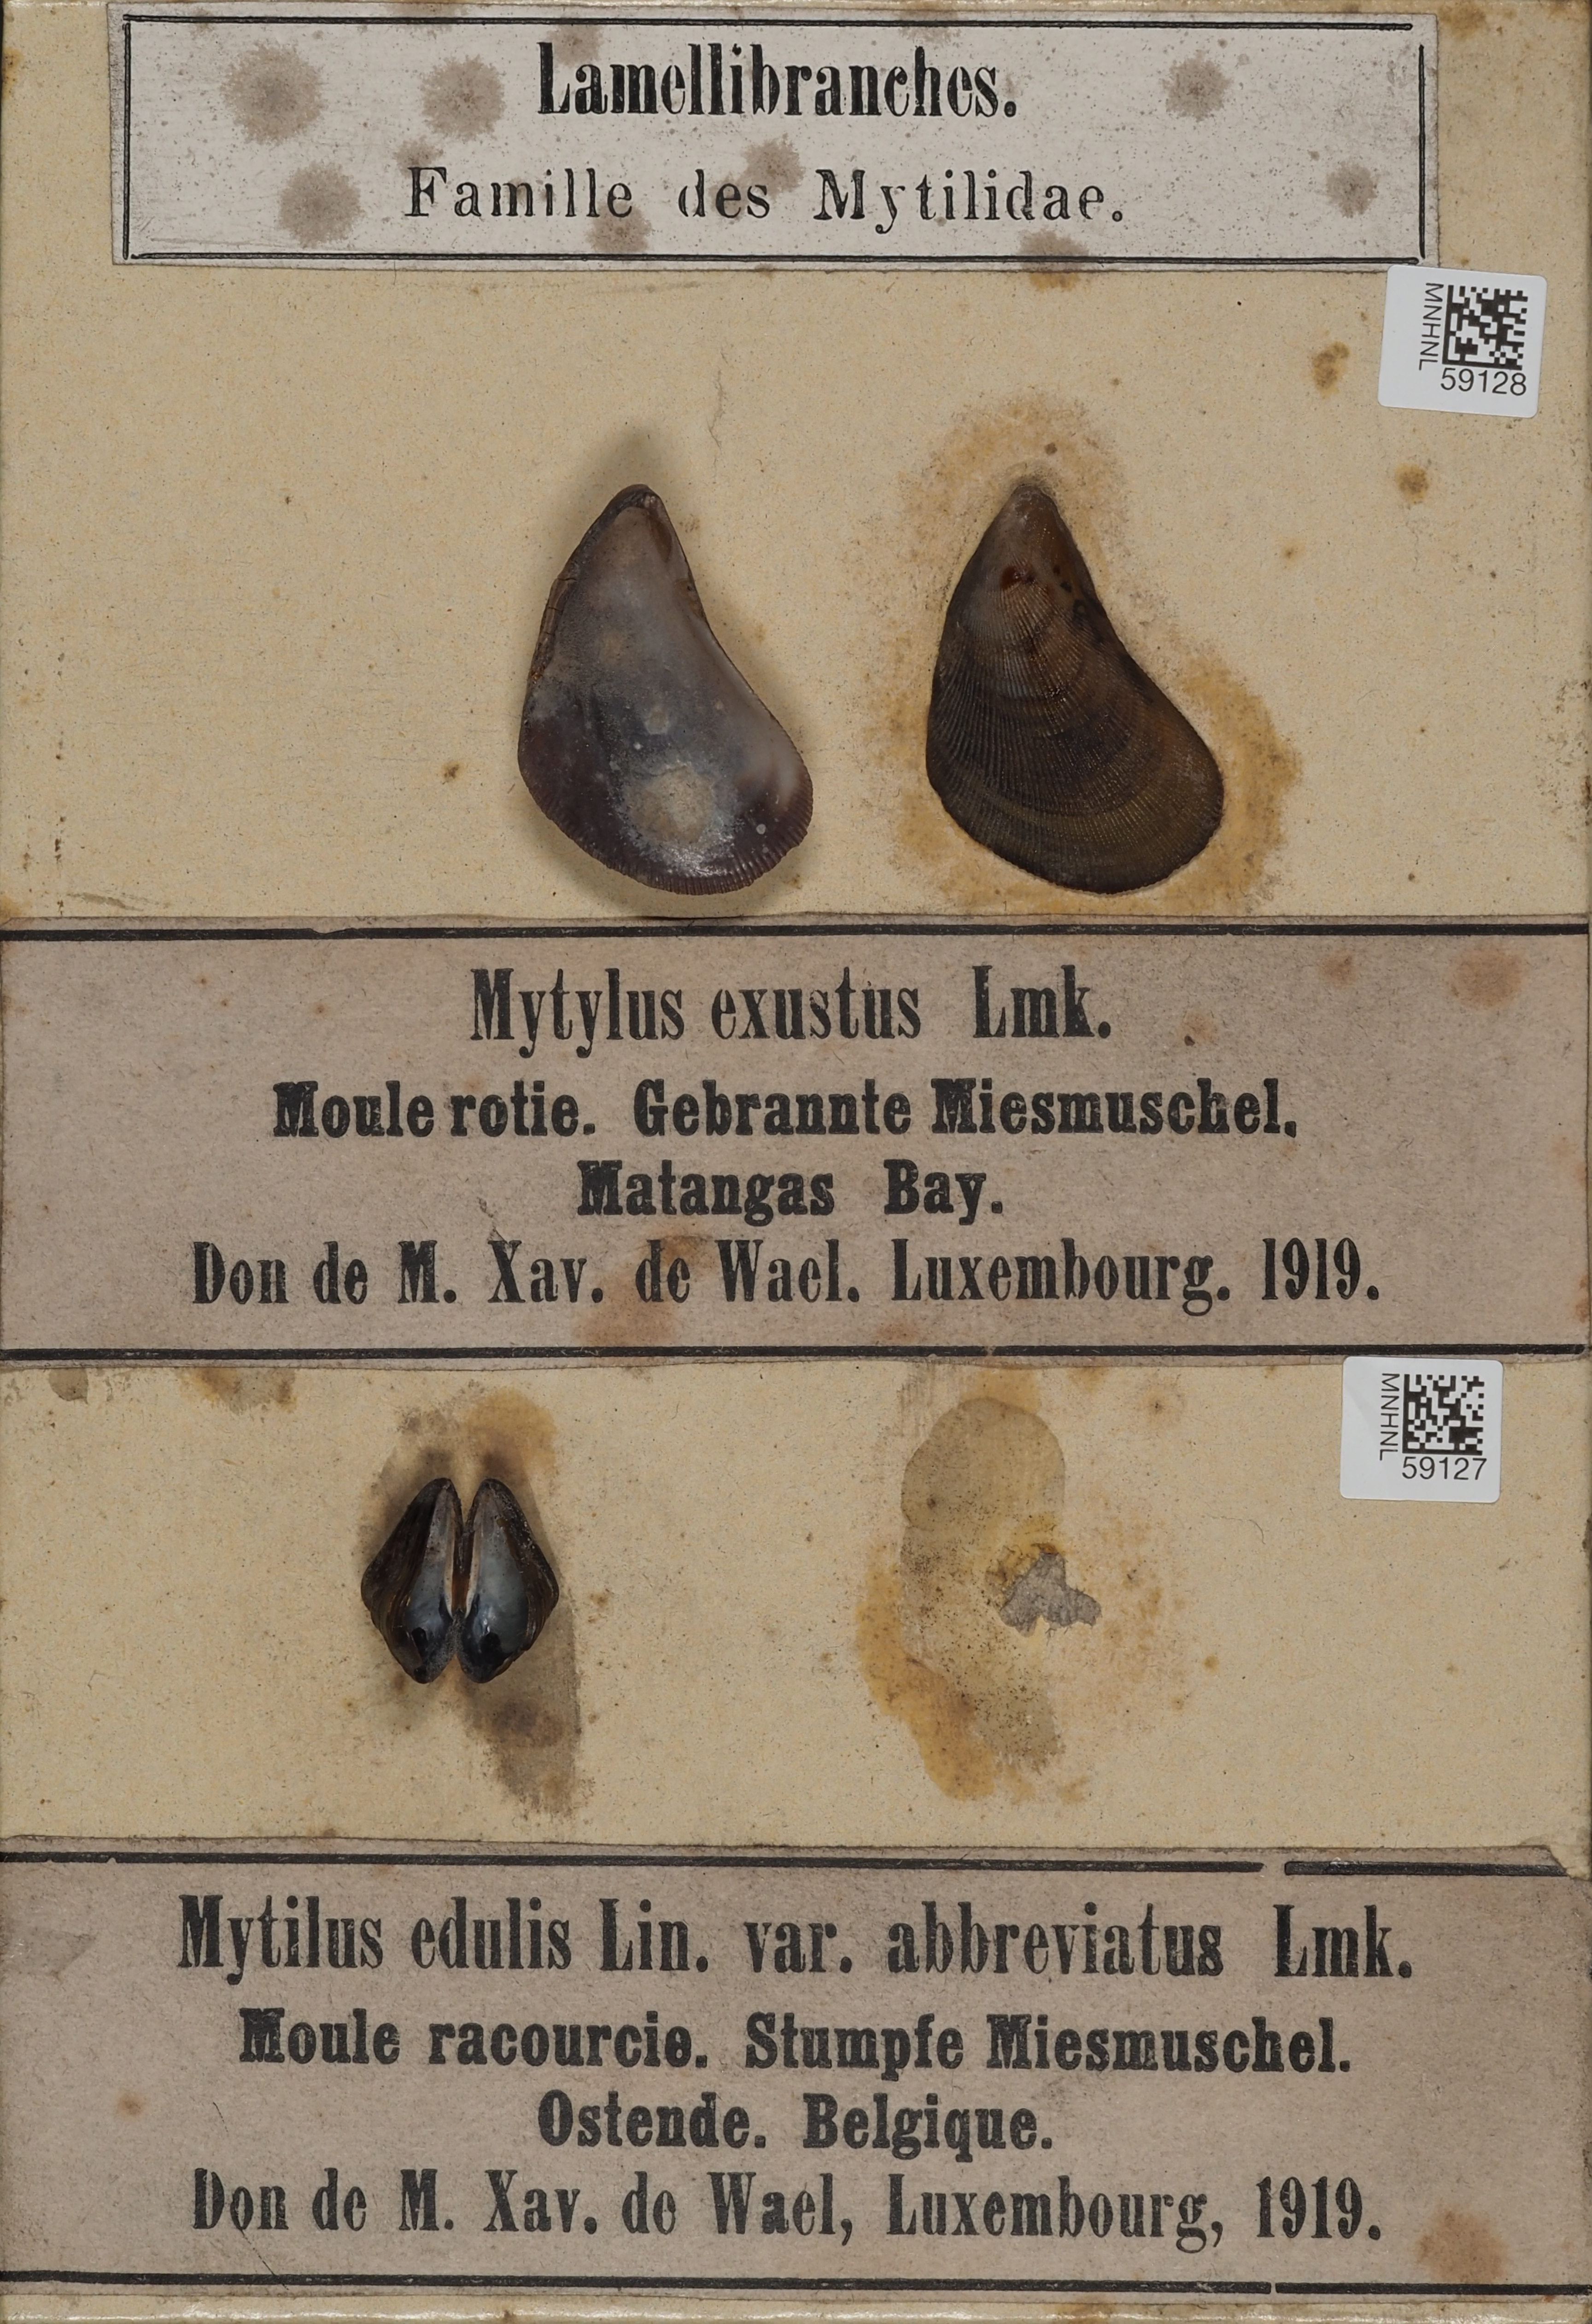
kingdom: Animalia
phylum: Mollusca
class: Bivalvia
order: Mytilida
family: Mytilidae
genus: Brachidontes
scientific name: Brachidontes exustus
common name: Scorched mussel
